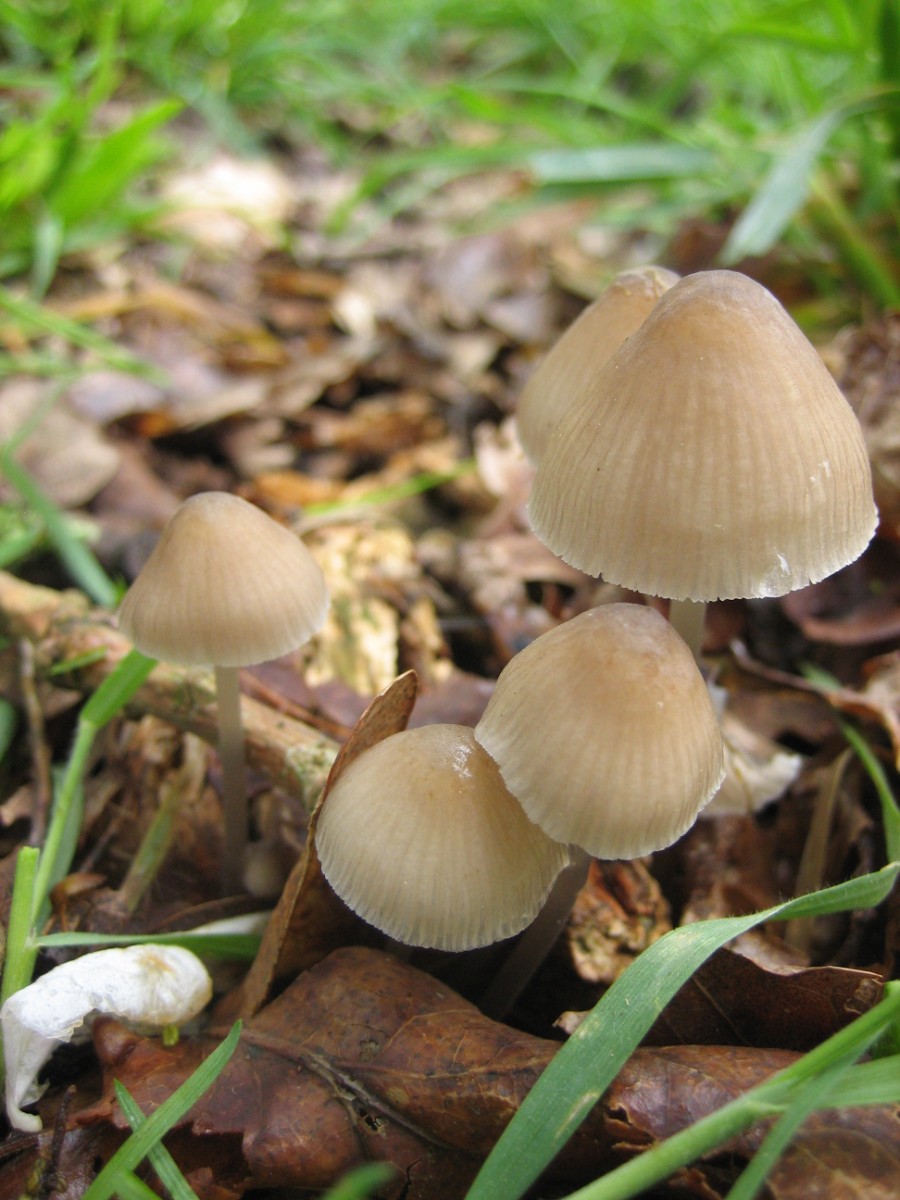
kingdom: Fungi
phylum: Basidiomycota
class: Agaricomycetes
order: Agaricales
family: Mycenaceae
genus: Mycena
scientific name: Mycena abramsii
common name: sommer-huesvamp
